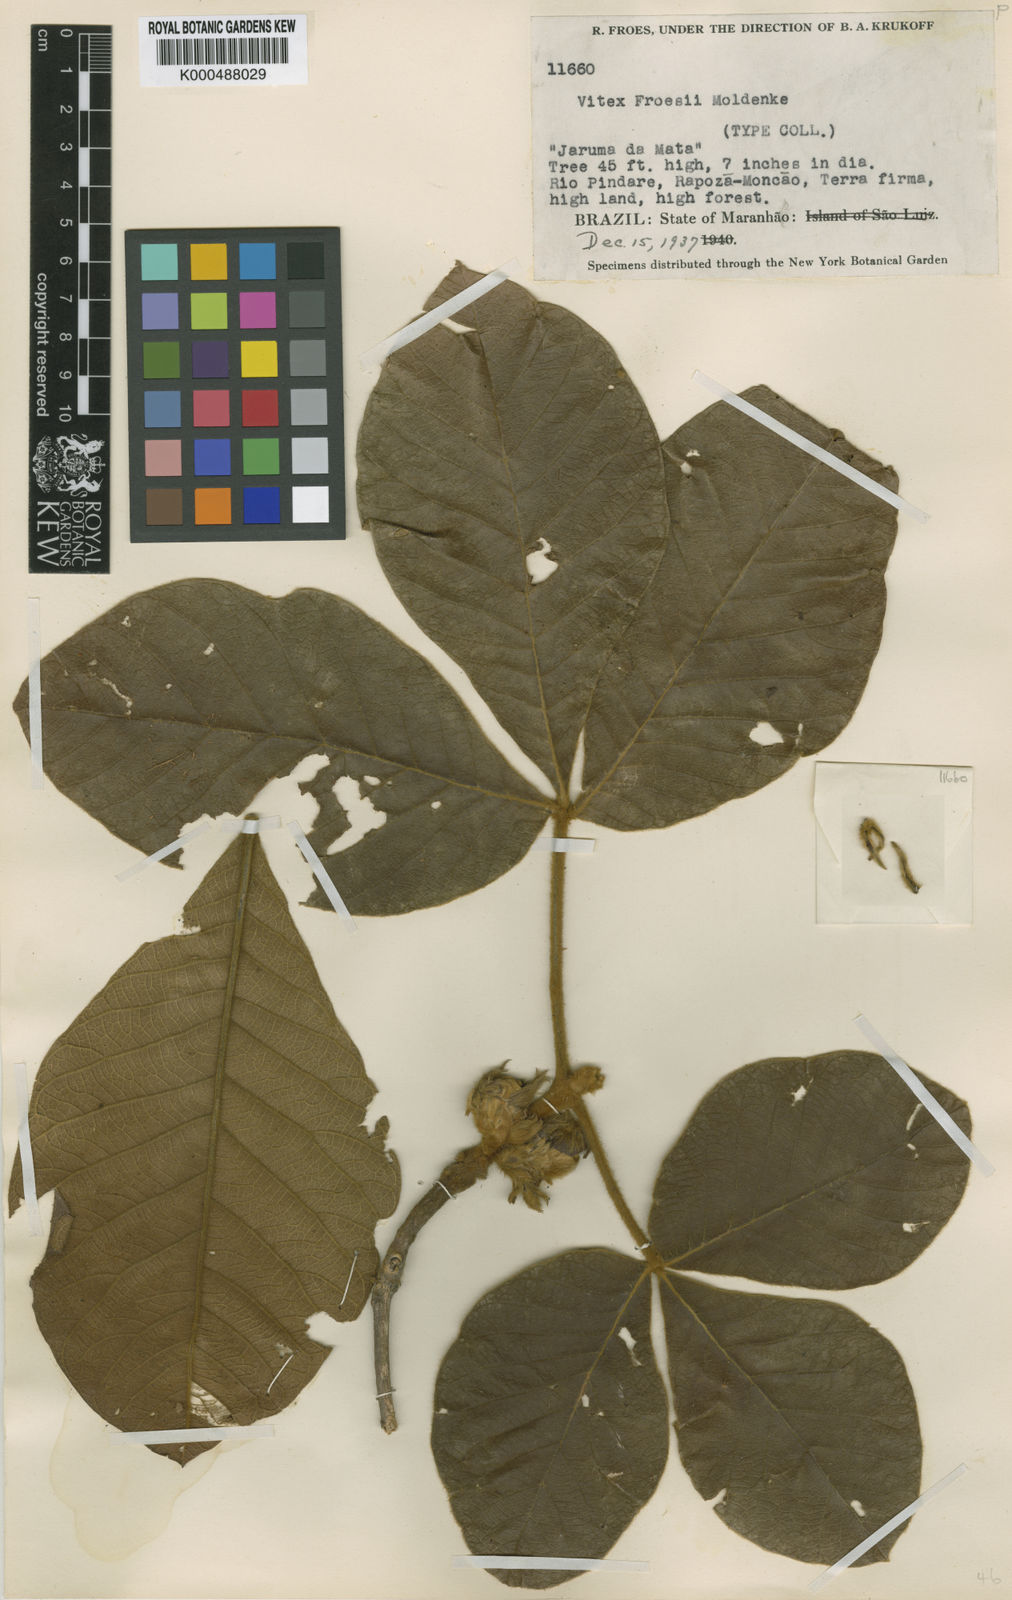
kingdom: Plantae
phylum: Tracheophyta
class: Magnoliopsida
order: Lamiales
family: Lamiaceae
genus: Vitex
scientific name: Vitex froesii
